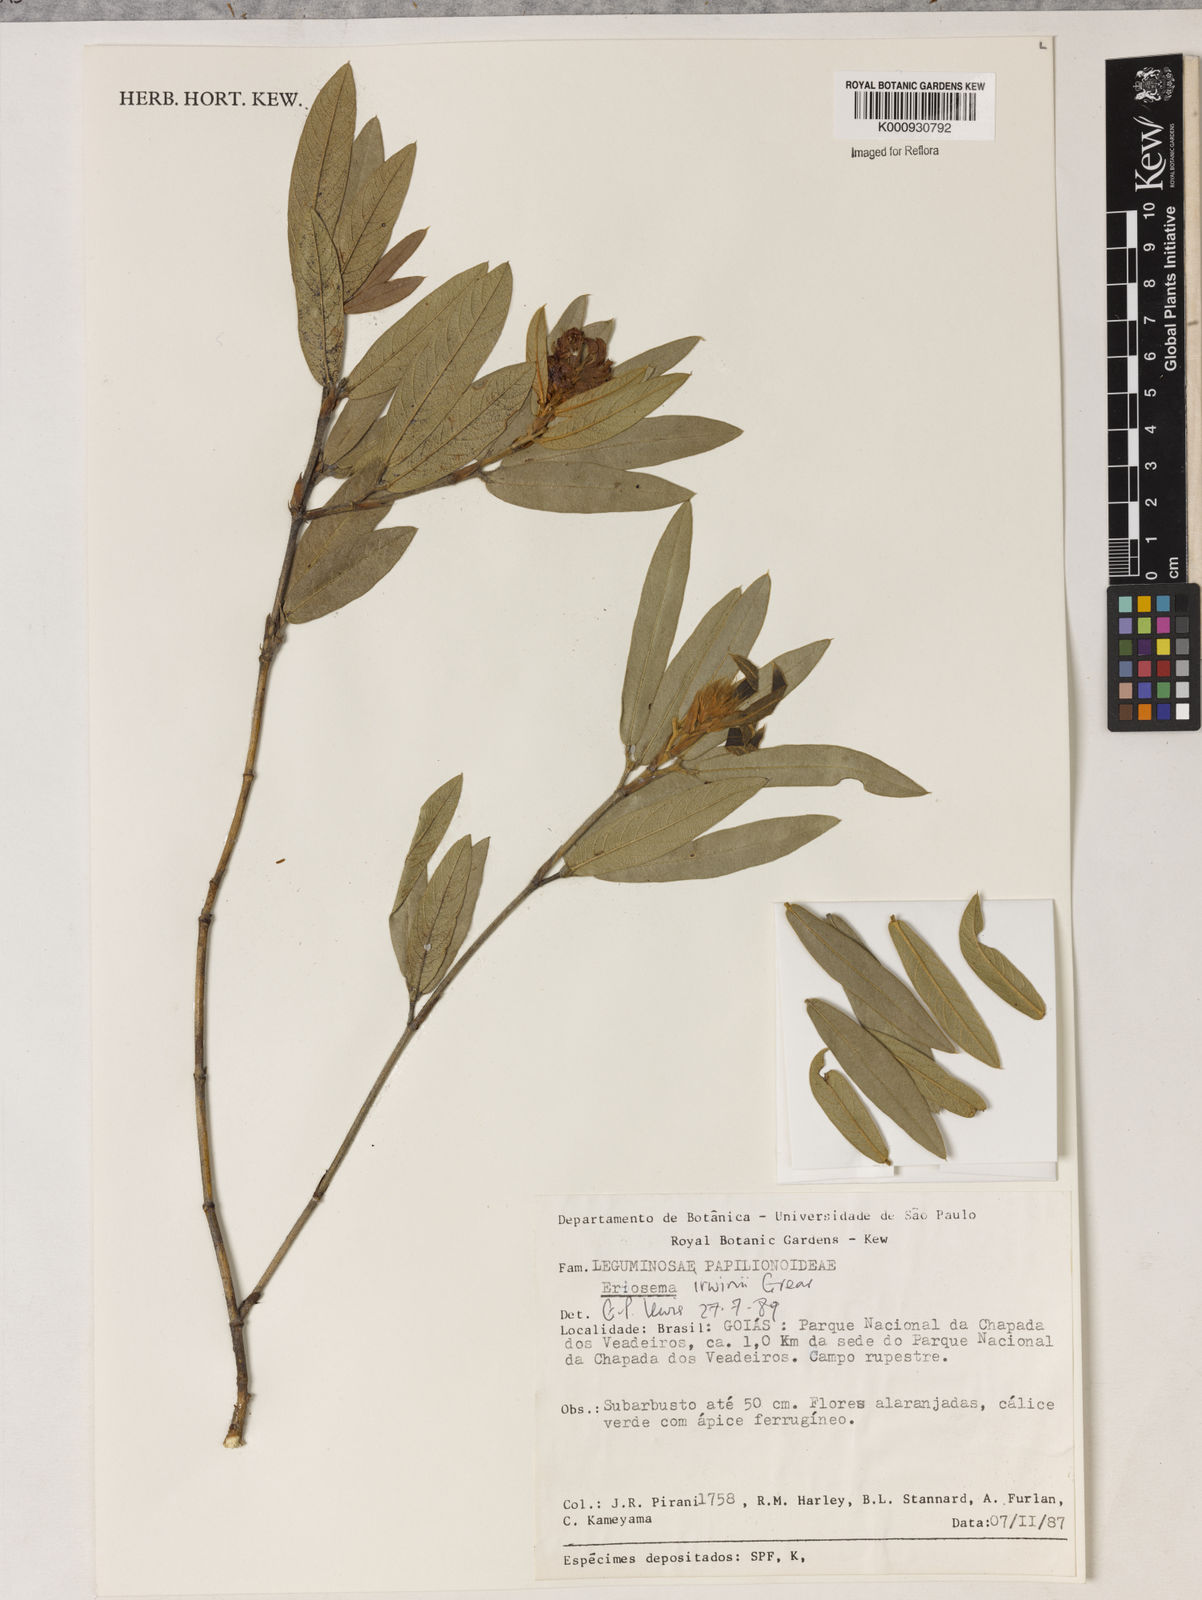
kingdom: Plantae
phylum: Tracheophyta
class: Magnoliopsida
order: Fabales
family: Fabaceae
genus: Eriosema
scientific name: Eriosema irwinii
